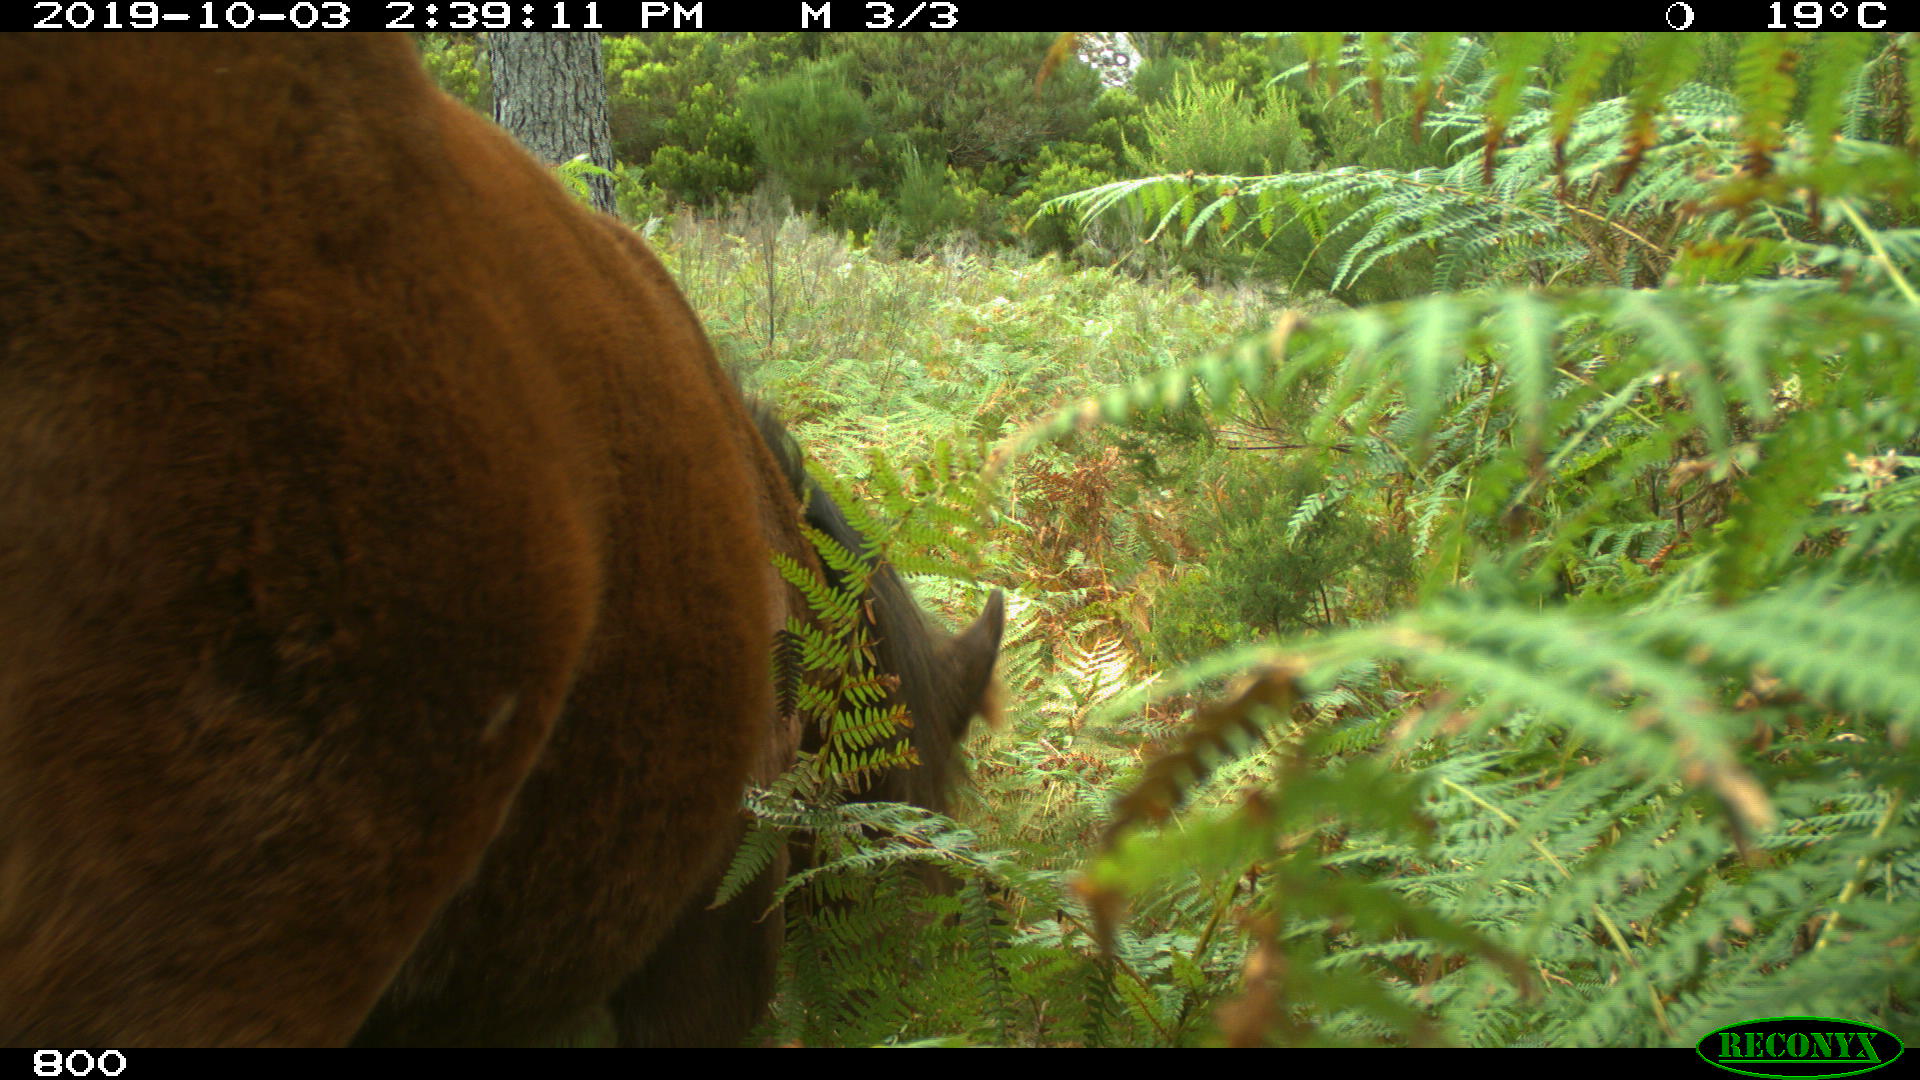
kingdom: Animalia
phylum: Chordata
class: Mammalia
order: Perissodactyla
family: Equidae
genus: Equus
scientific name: Equus caballus
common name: Horse
